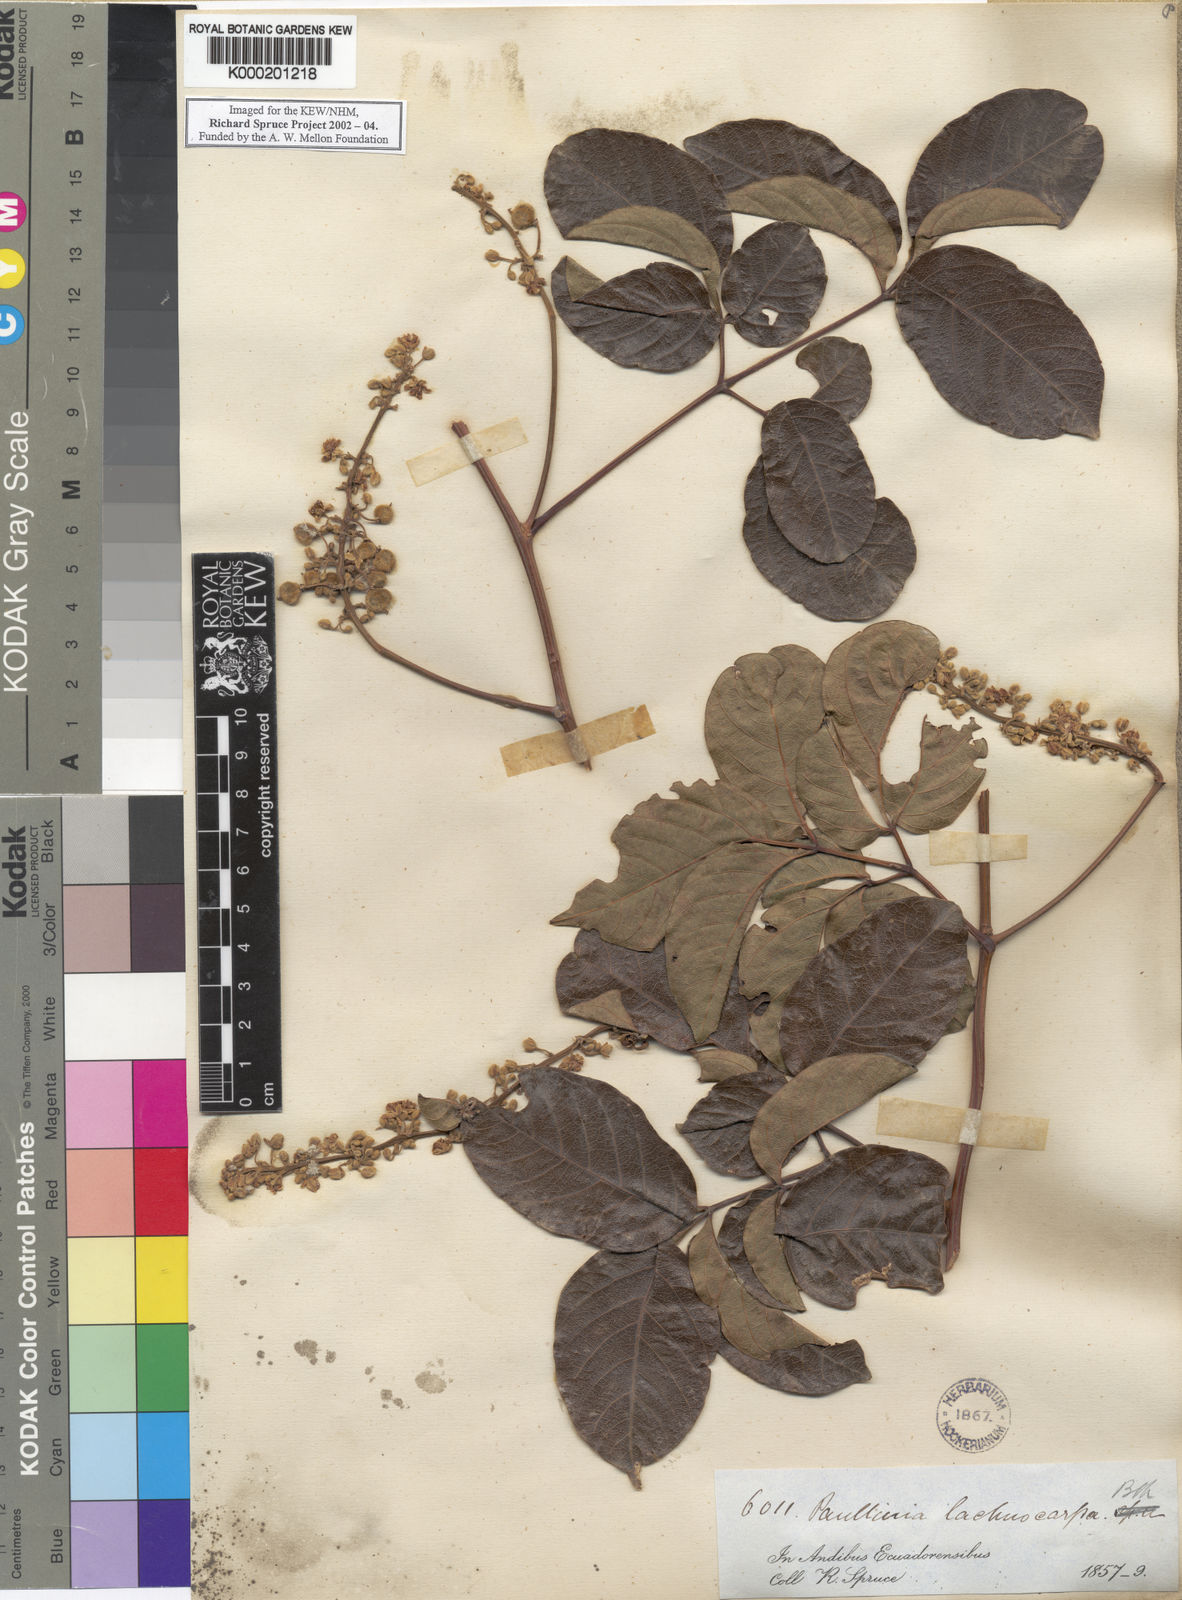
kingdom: Plantae
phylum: Tracheophyta
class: Magnoliopsida
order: Sapindales
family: Sapindaceae
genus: Serjania
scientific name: Serjania lachnocarpa
